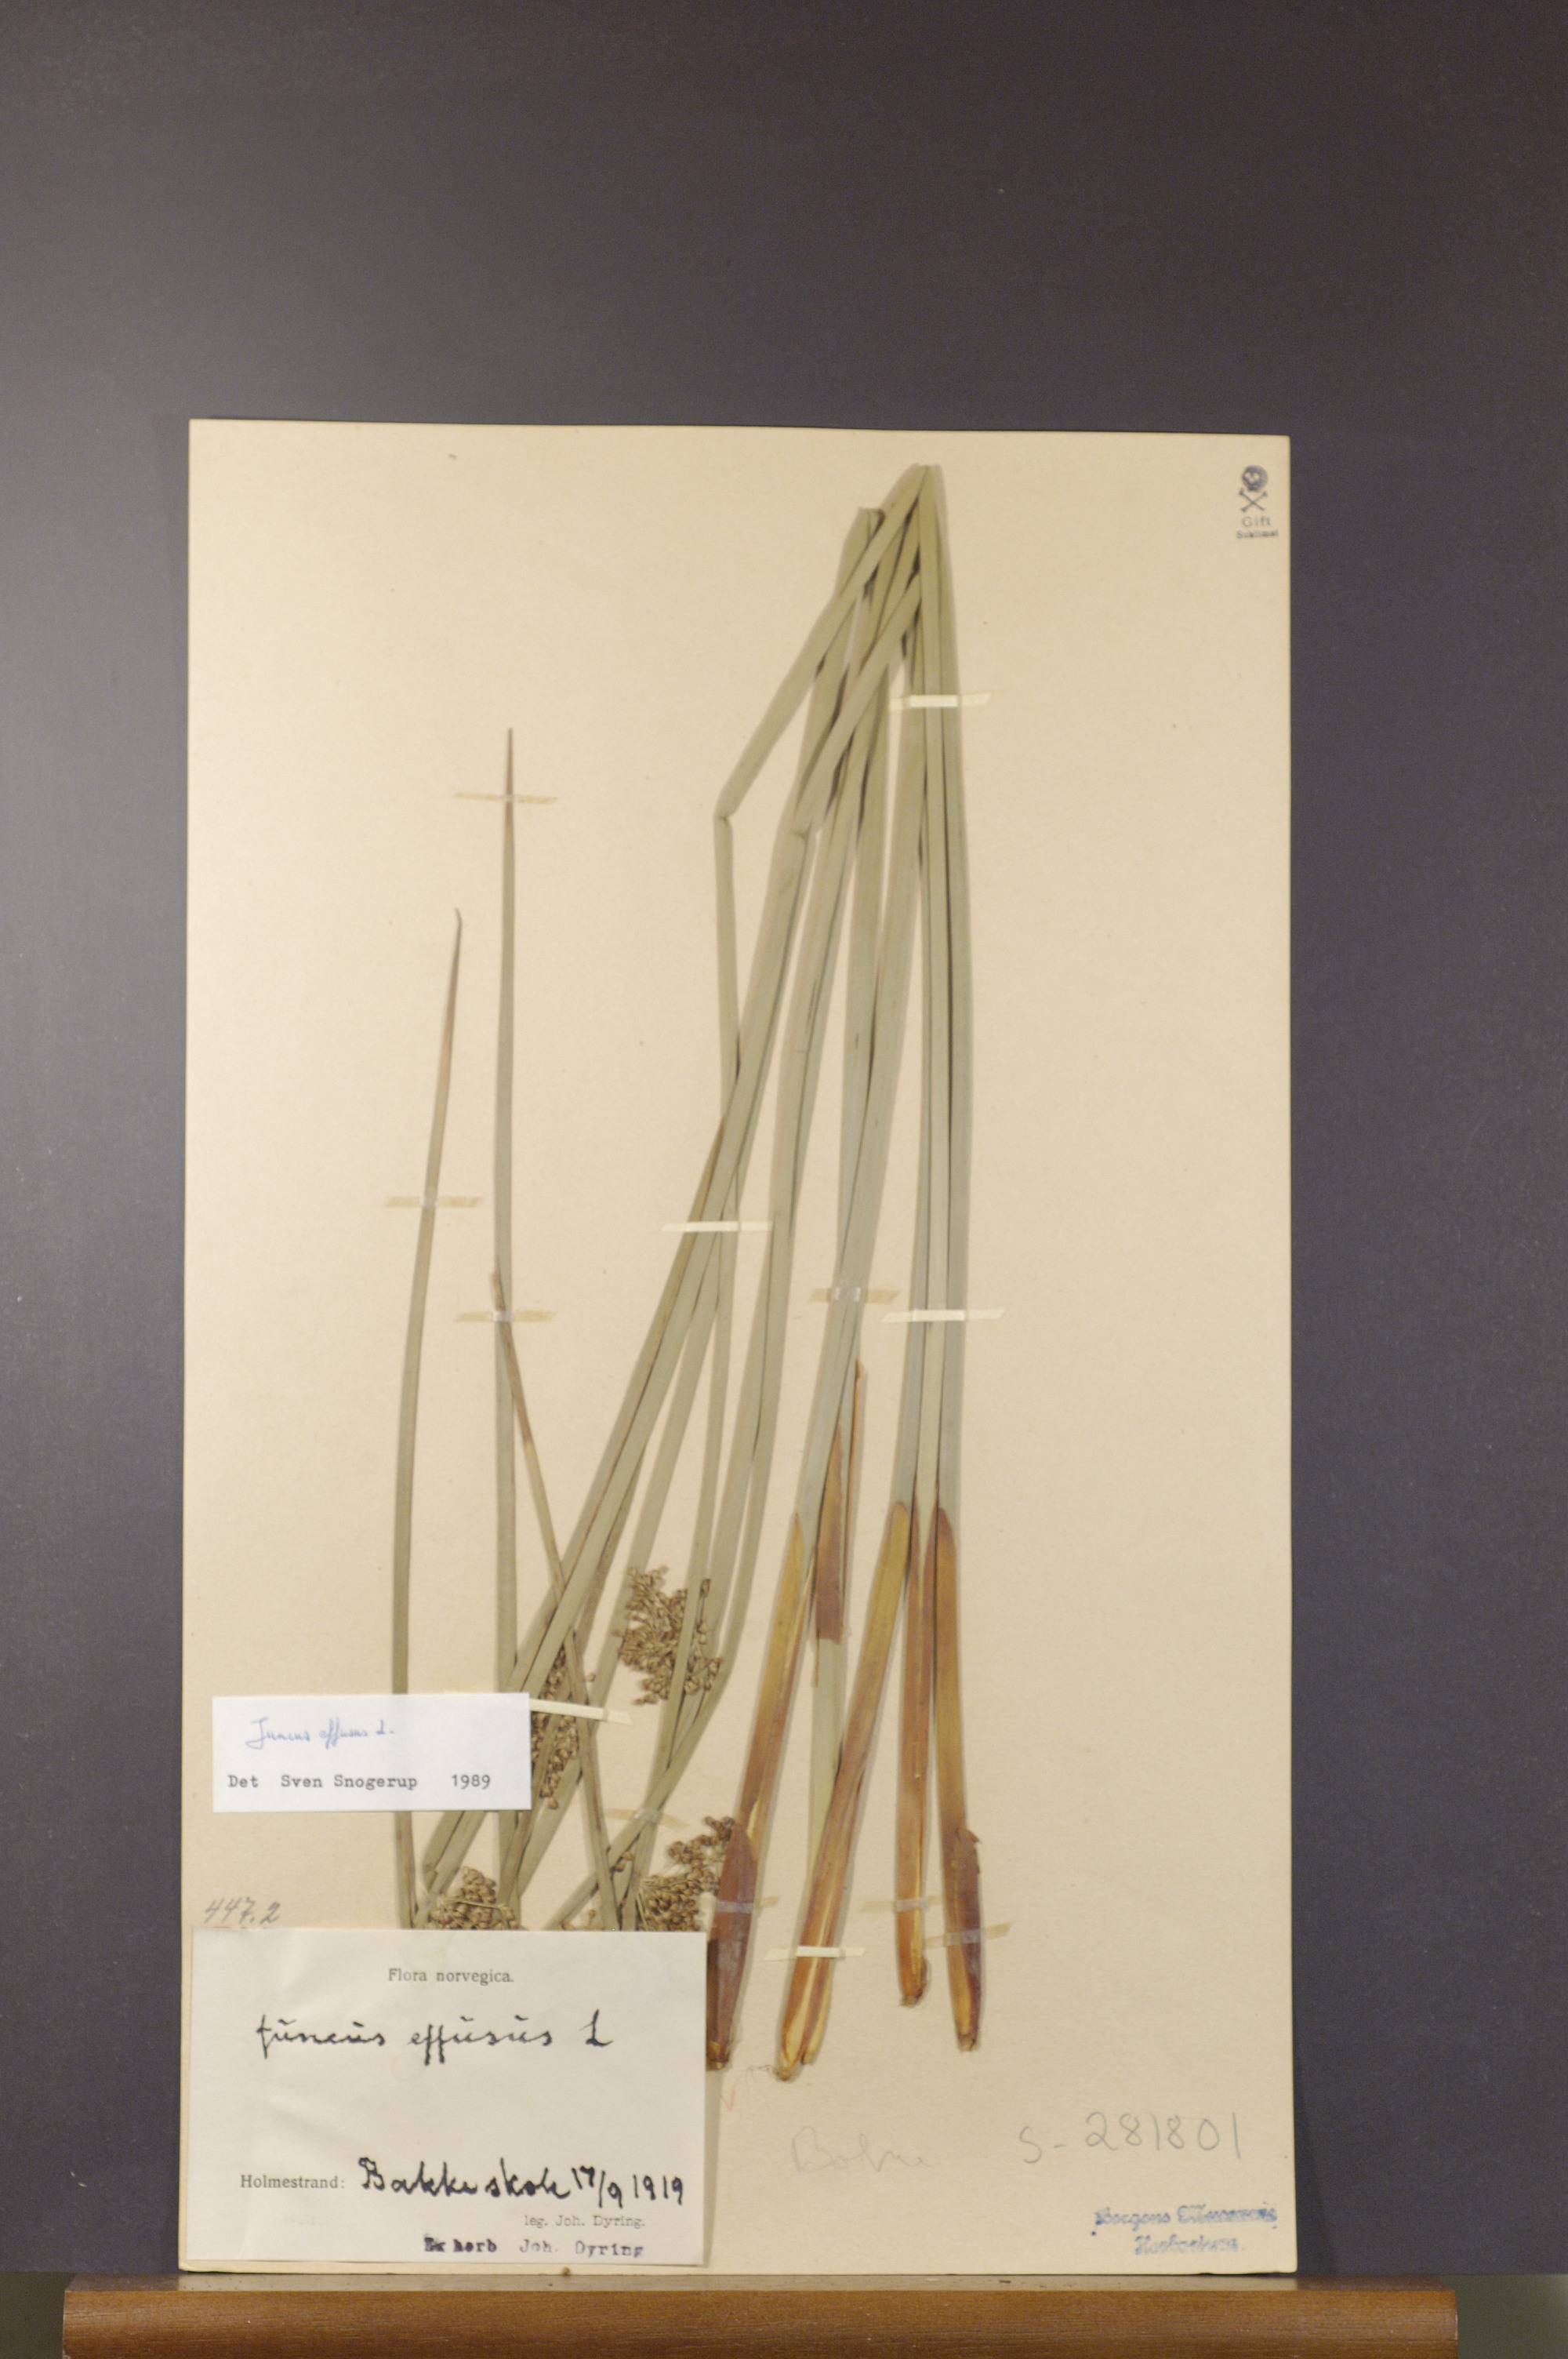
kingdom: Plantae
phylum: Tracheophyta
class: Liliopsida
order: Poales
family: Juncaceae
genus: Juncus
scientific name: Juncus effusus
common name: Soft rush
